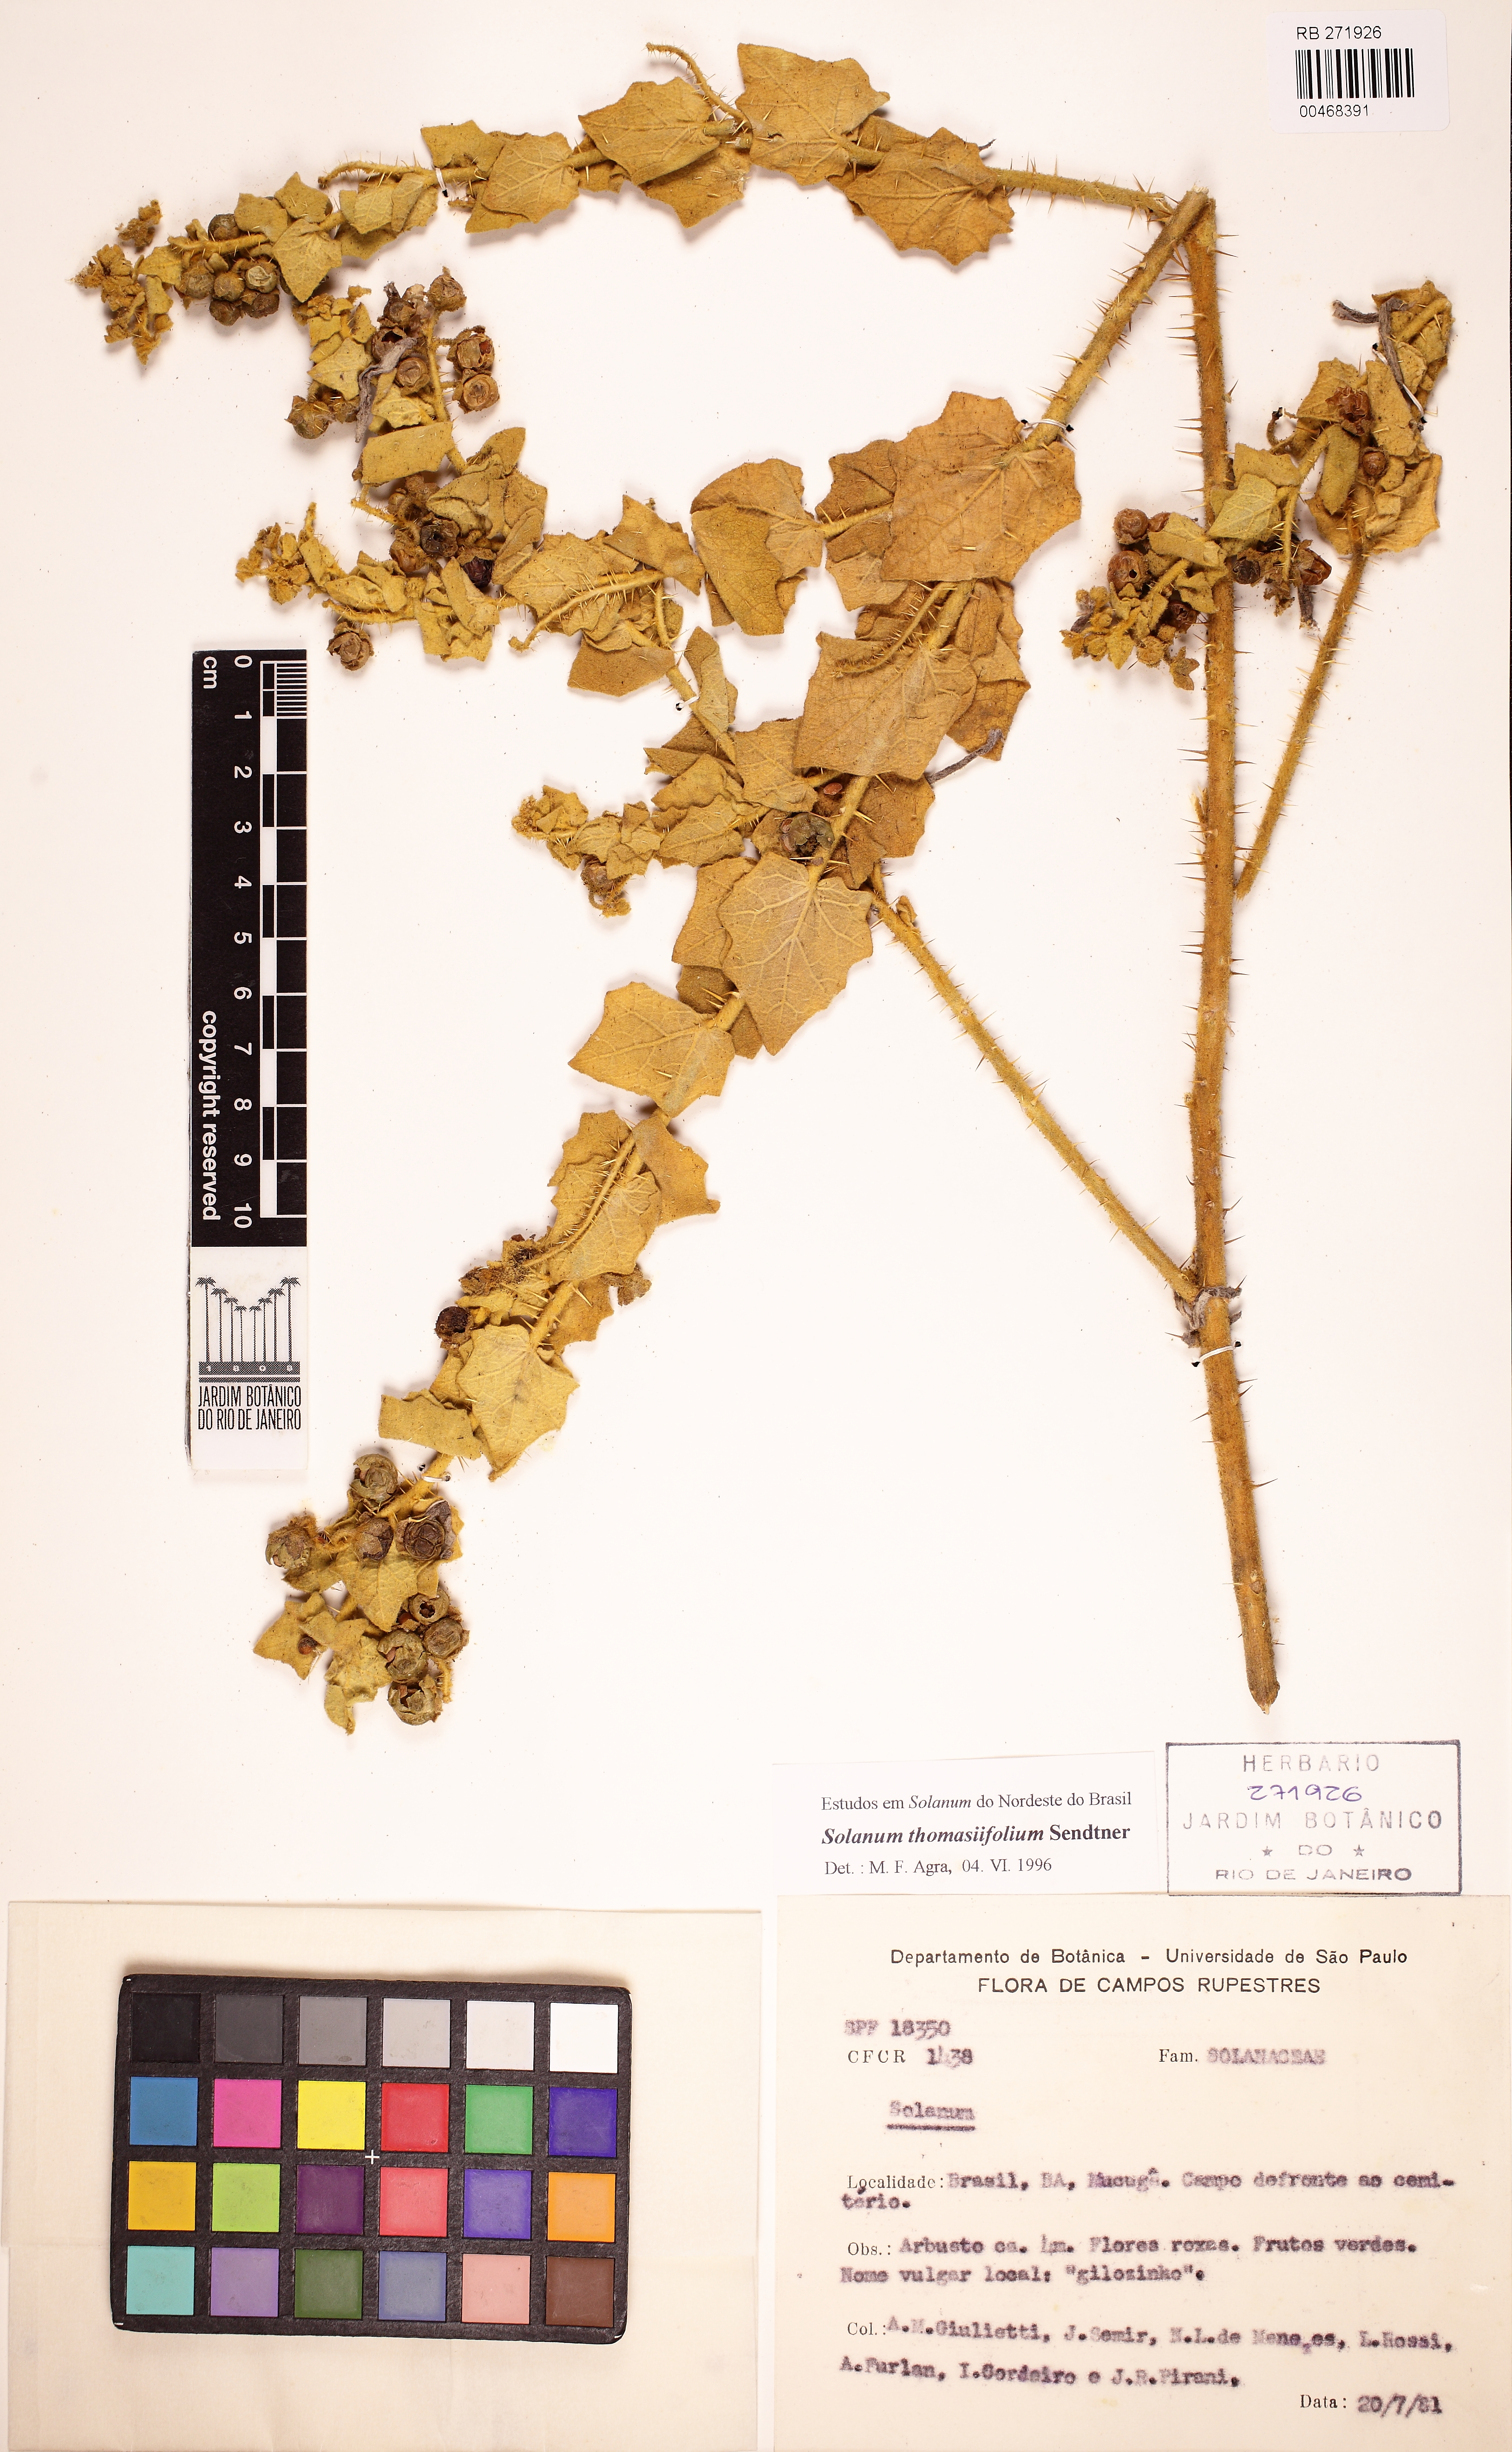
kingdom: Plantae
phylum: Tracheophyta
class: Magnoliopsida
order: Solanales
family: Solanaceae
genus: Solanum
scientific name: Solanum thomasiifolium
